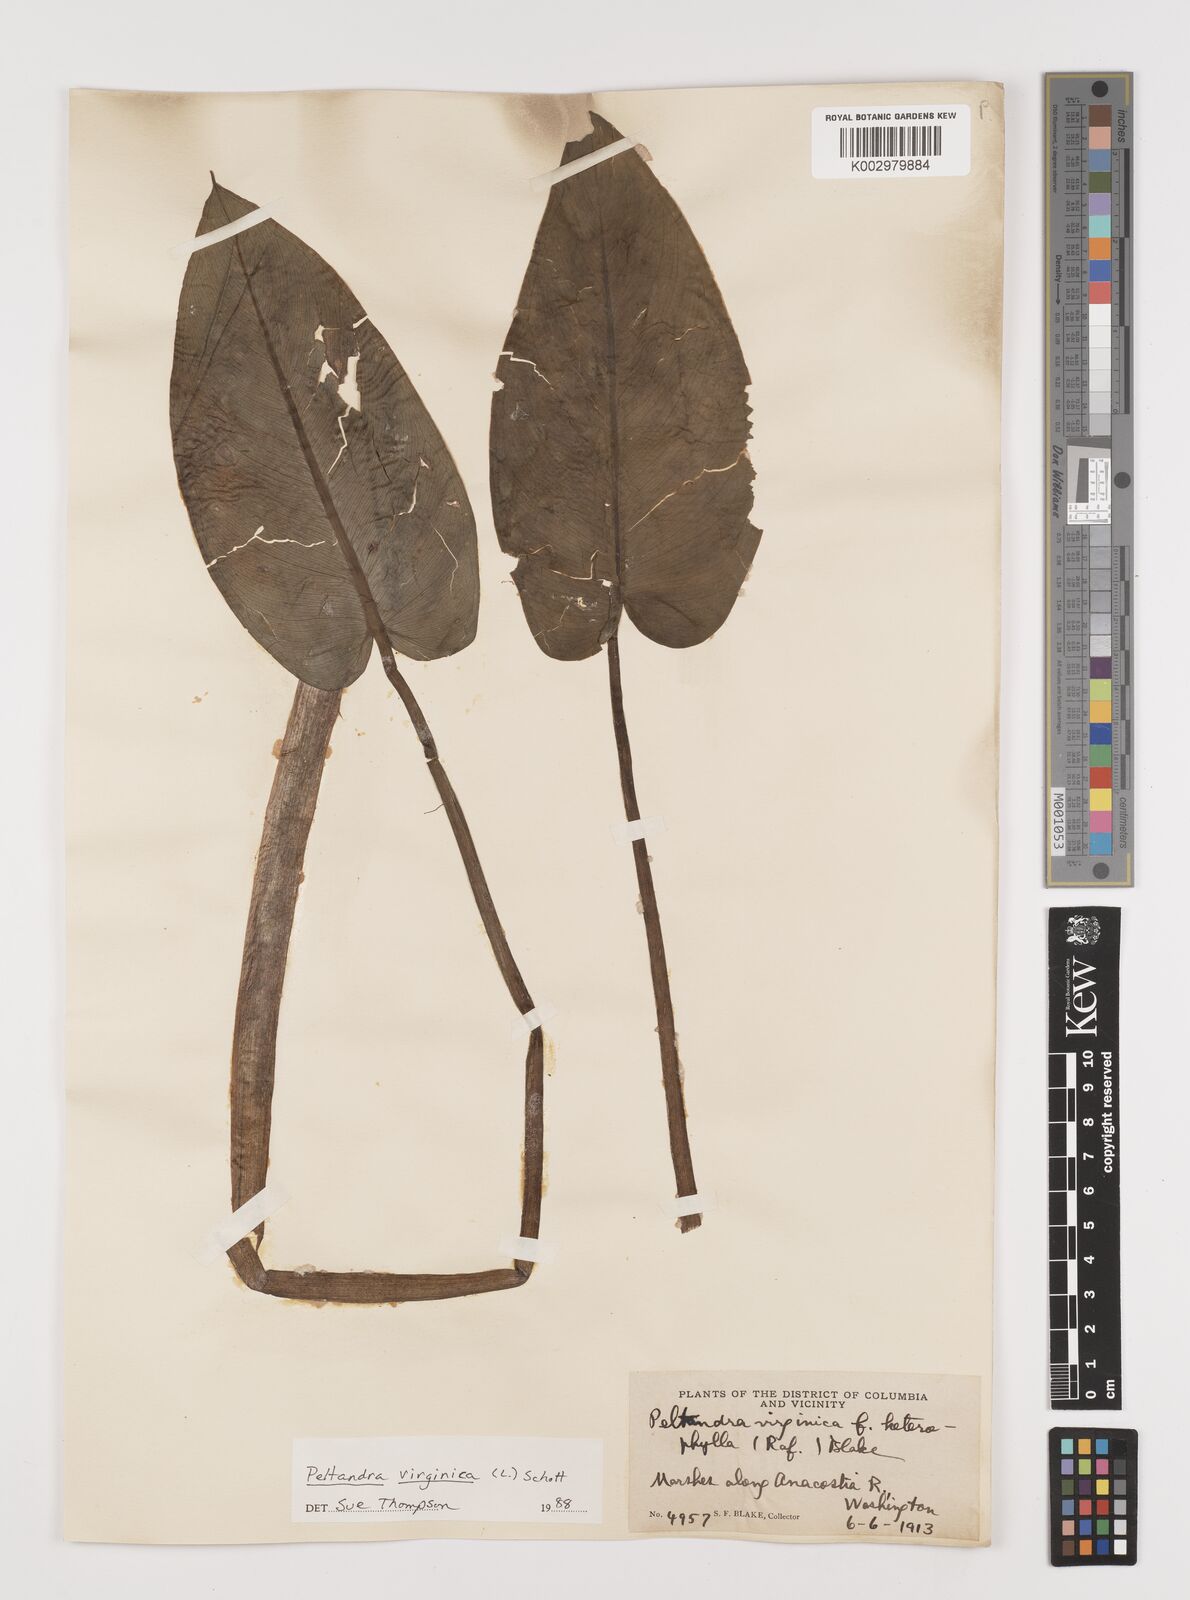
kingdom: Plantae
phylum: Tracheophyta
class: Liliopsida
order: Alismatales
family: Araceae
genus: Peltandra
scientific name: Peltandra virginica
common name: Arrow arum
